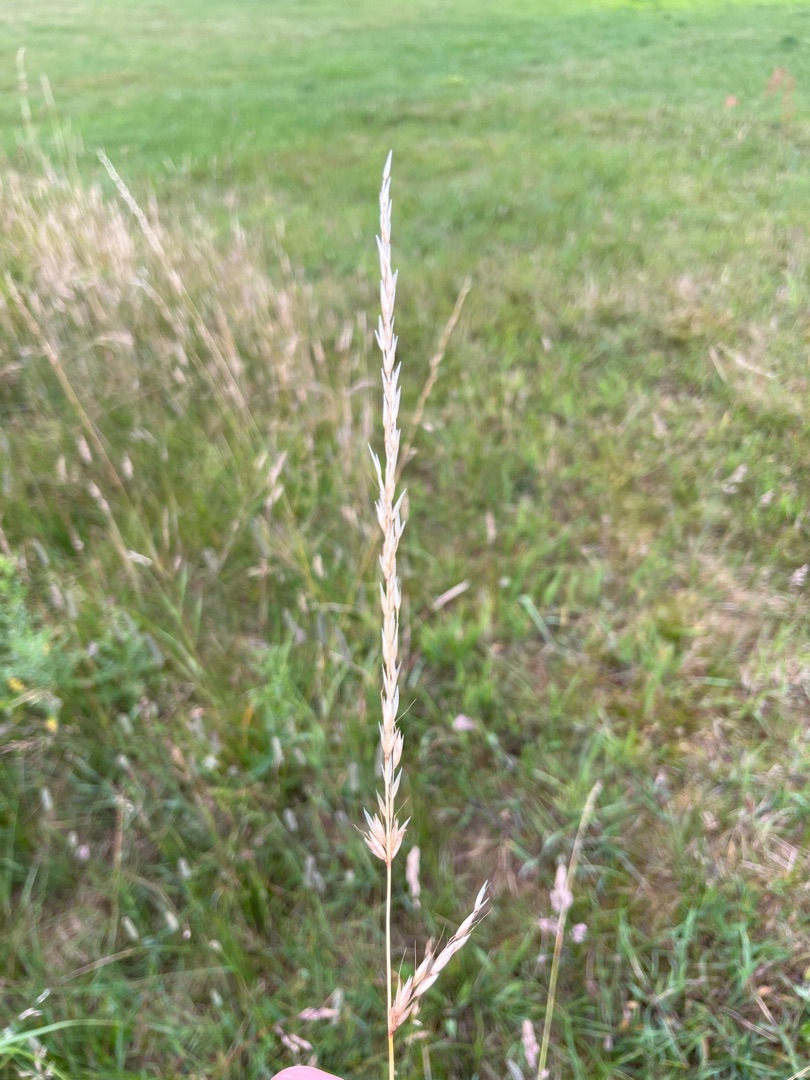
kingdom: Plantae
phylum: Tracheophyta
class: Liliopsida
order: Poales
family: Poaceae
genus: Arrhenatherum
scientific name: Arrhenatherum elatius
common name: Draphavre
